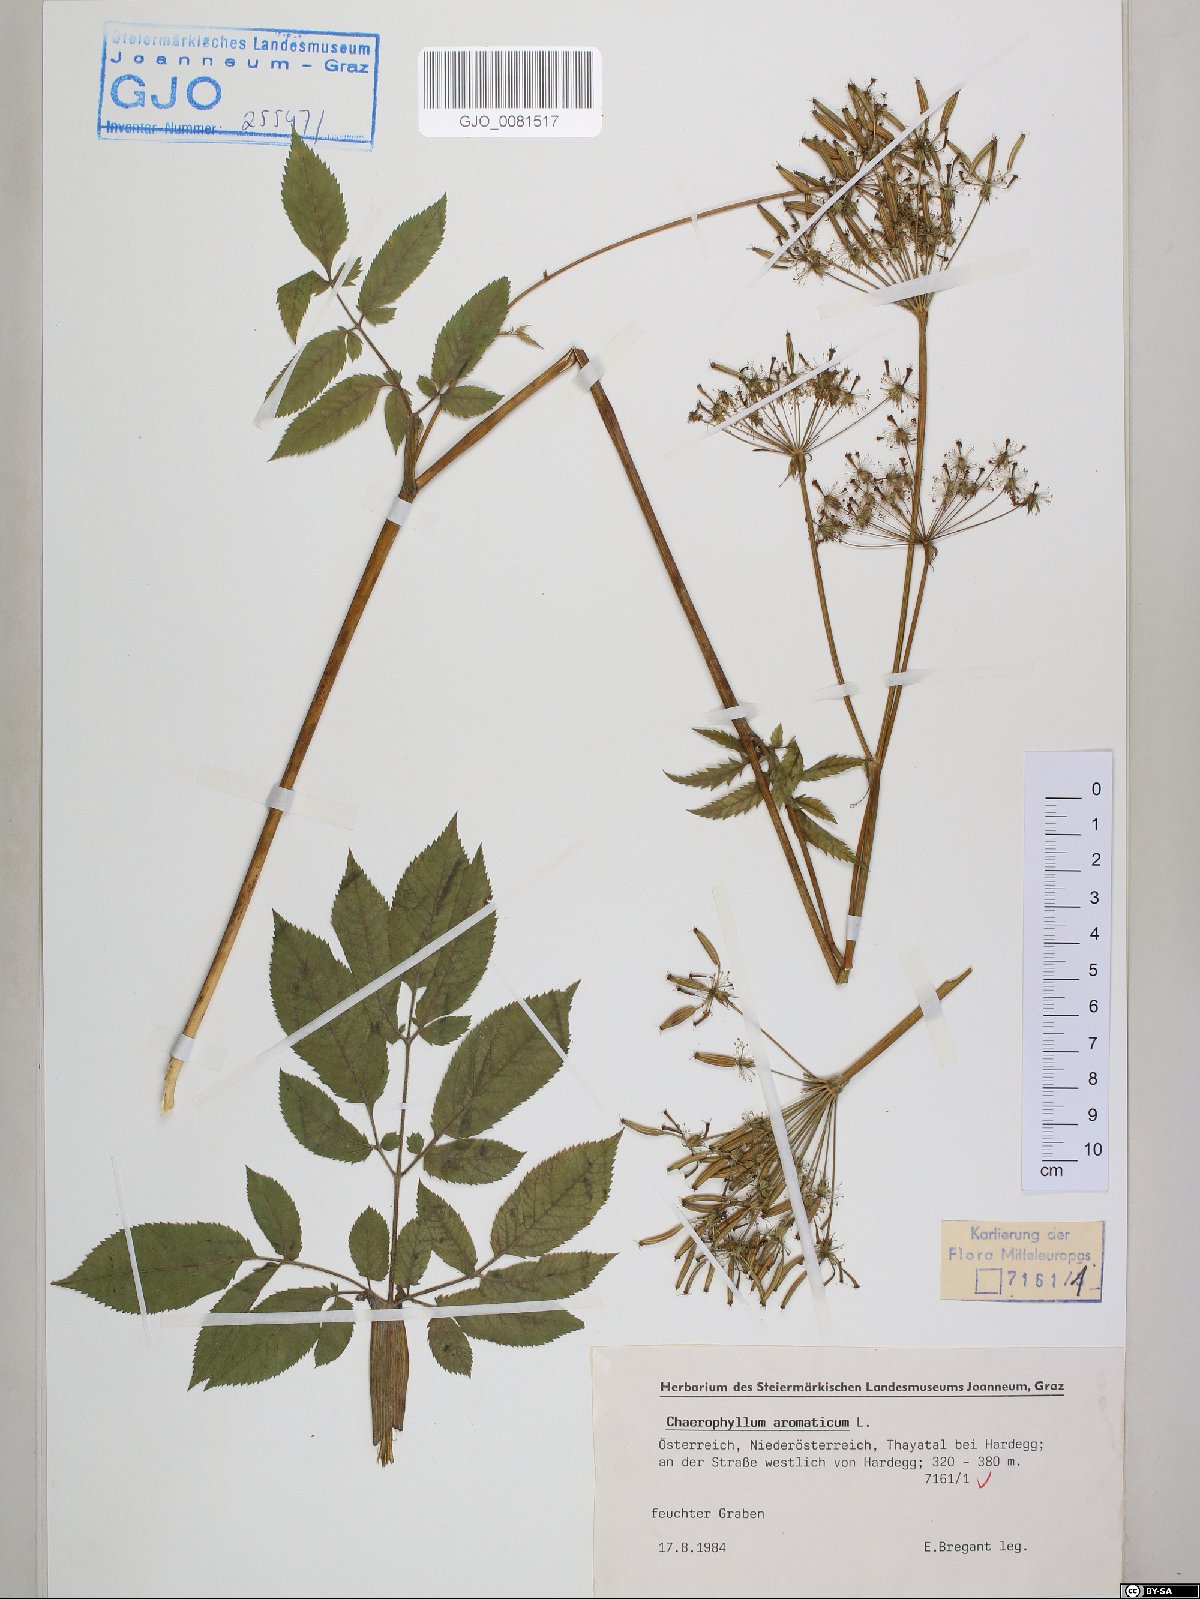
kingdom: Plantae
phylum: Tracheophyta
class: Magnoliopsida
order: Apiales
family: Apiaceae
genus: Chaerophyllum
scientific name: Chaerophyllum aromaticum
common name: Broadleaf chervil
